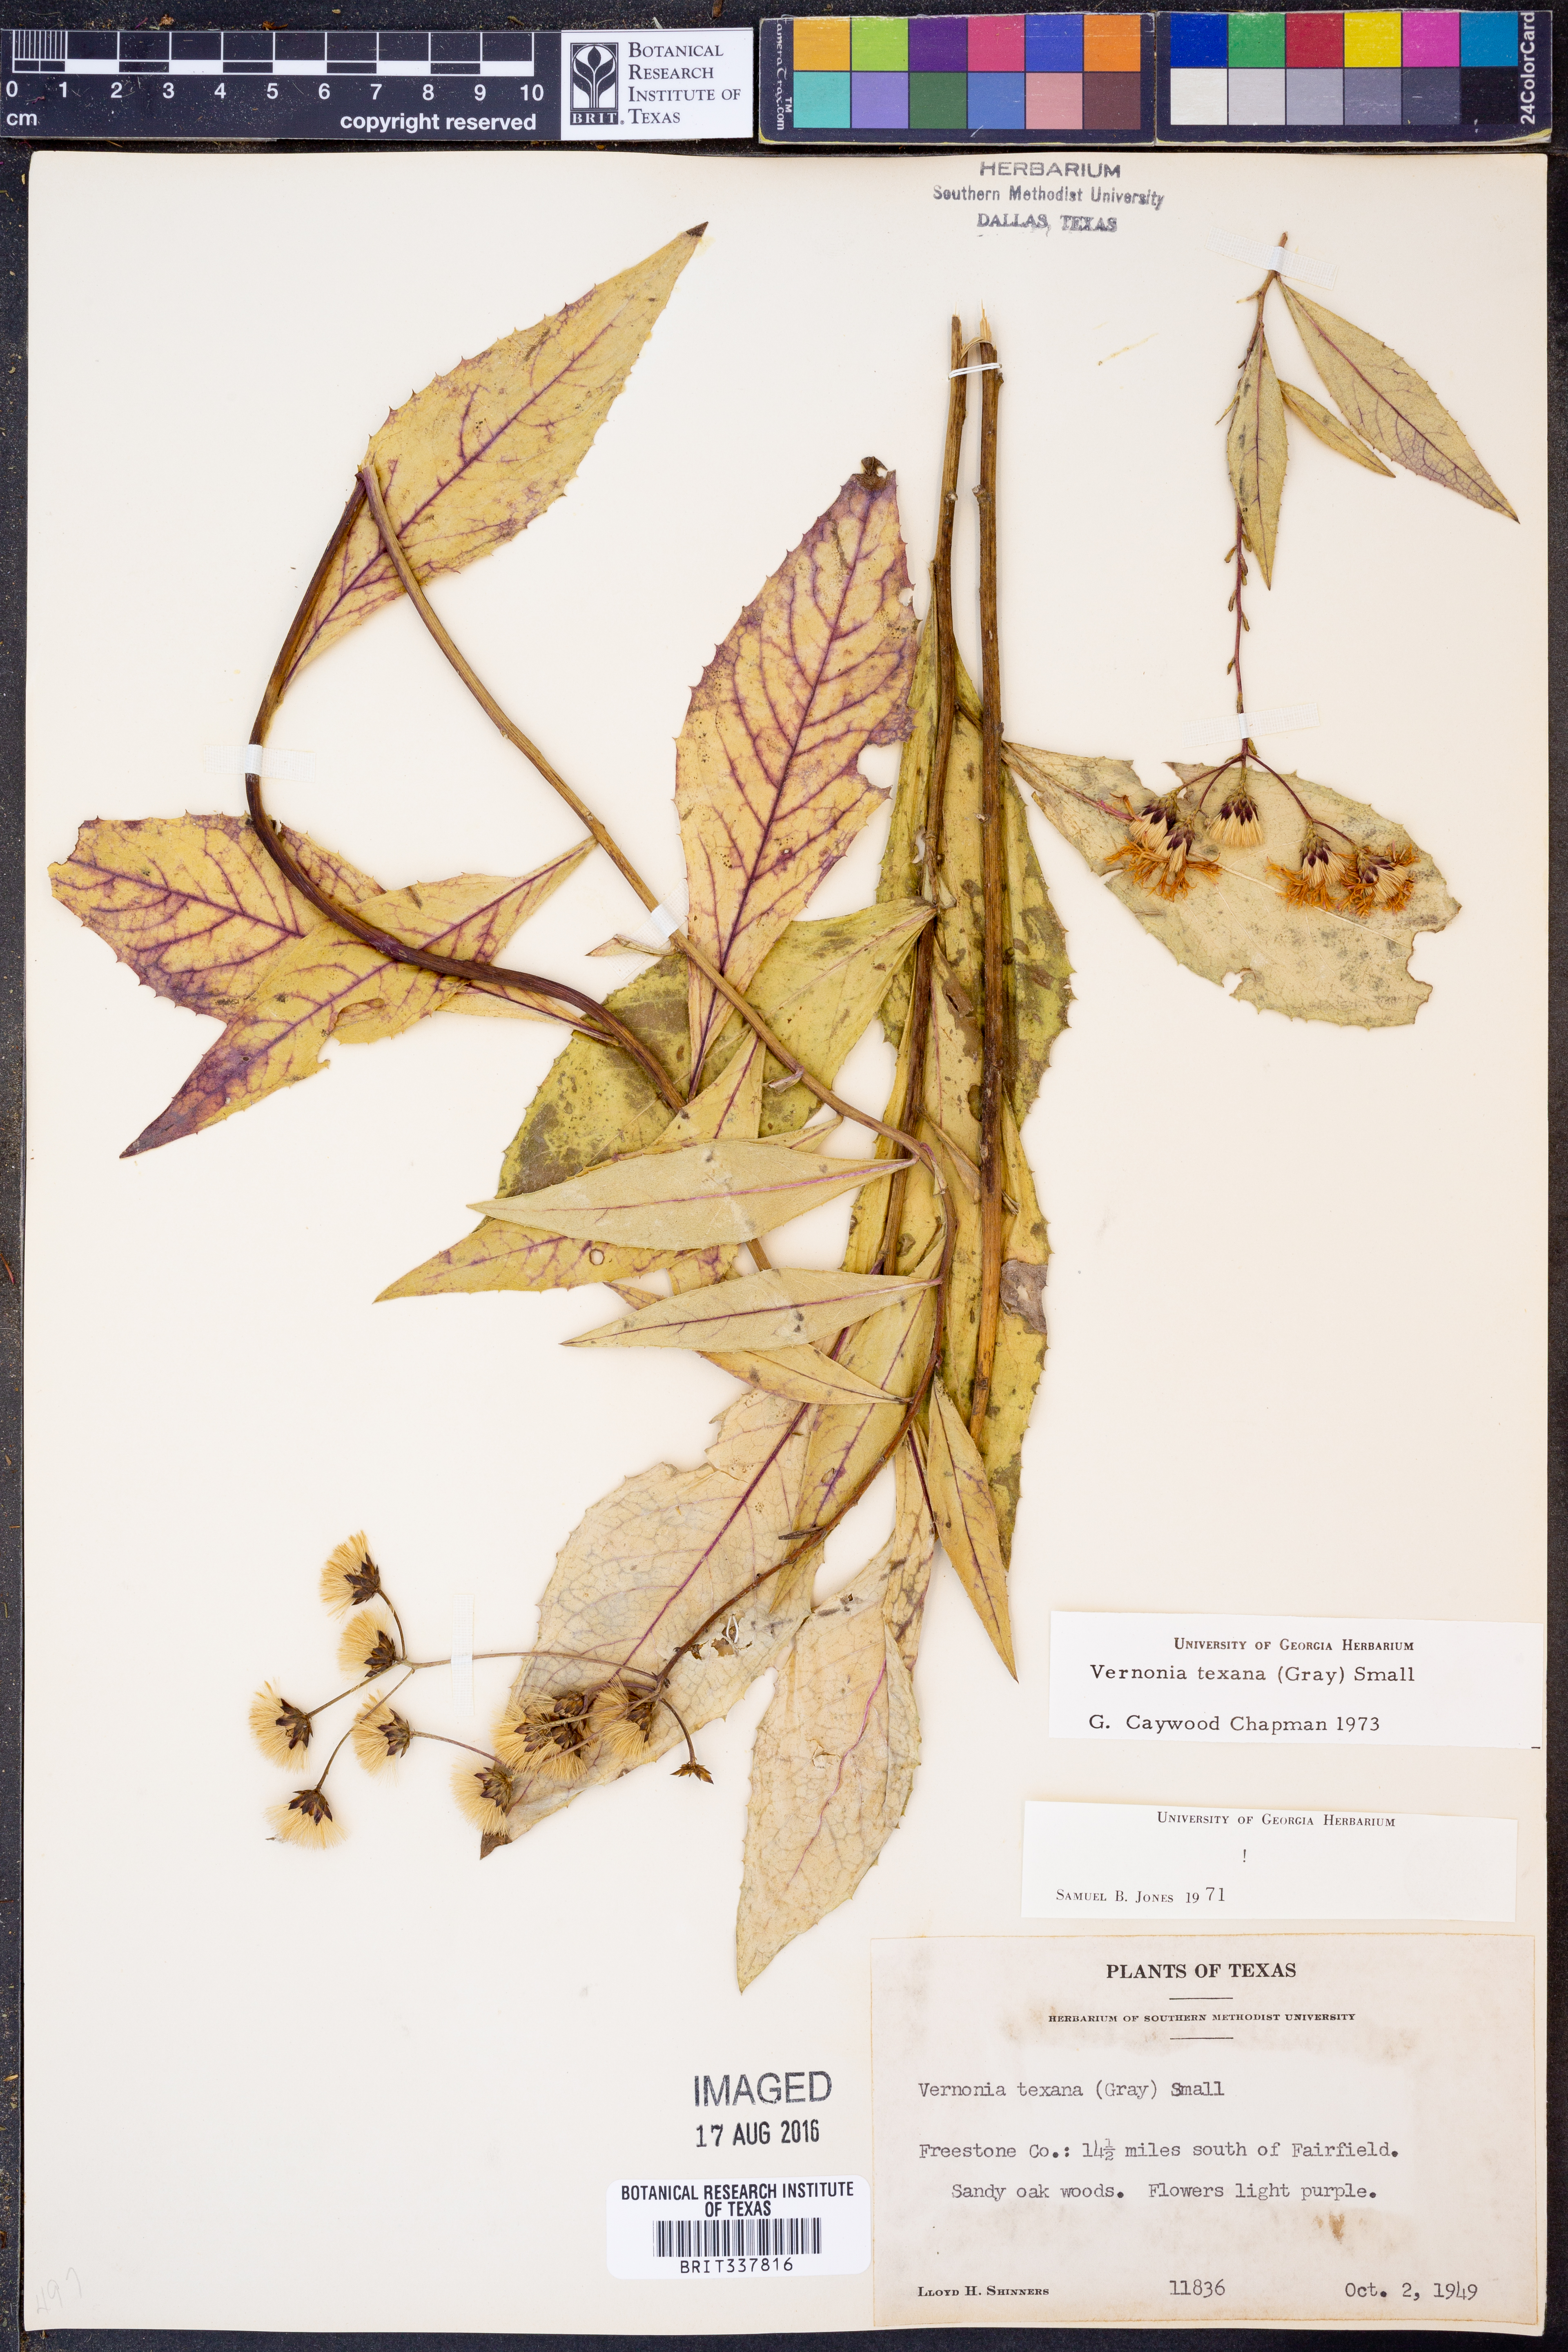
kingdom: Plantae
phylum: Tracheophyta
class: Magnoliopsida
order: Asterales
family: Asteraceae
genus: Vernonia
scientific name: Vernonia texana
